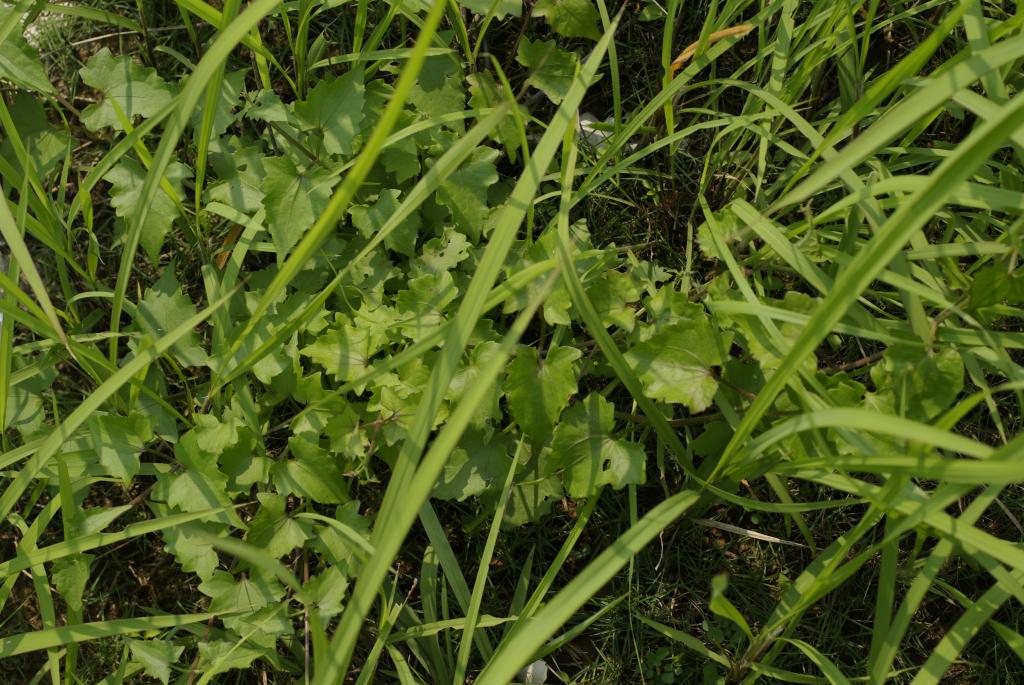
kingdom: Plantae
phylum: Tracheophyta
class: Magnoliopsida
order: Asterales
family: Asteraceae
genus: Mikania
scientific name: Mikania micrantha
